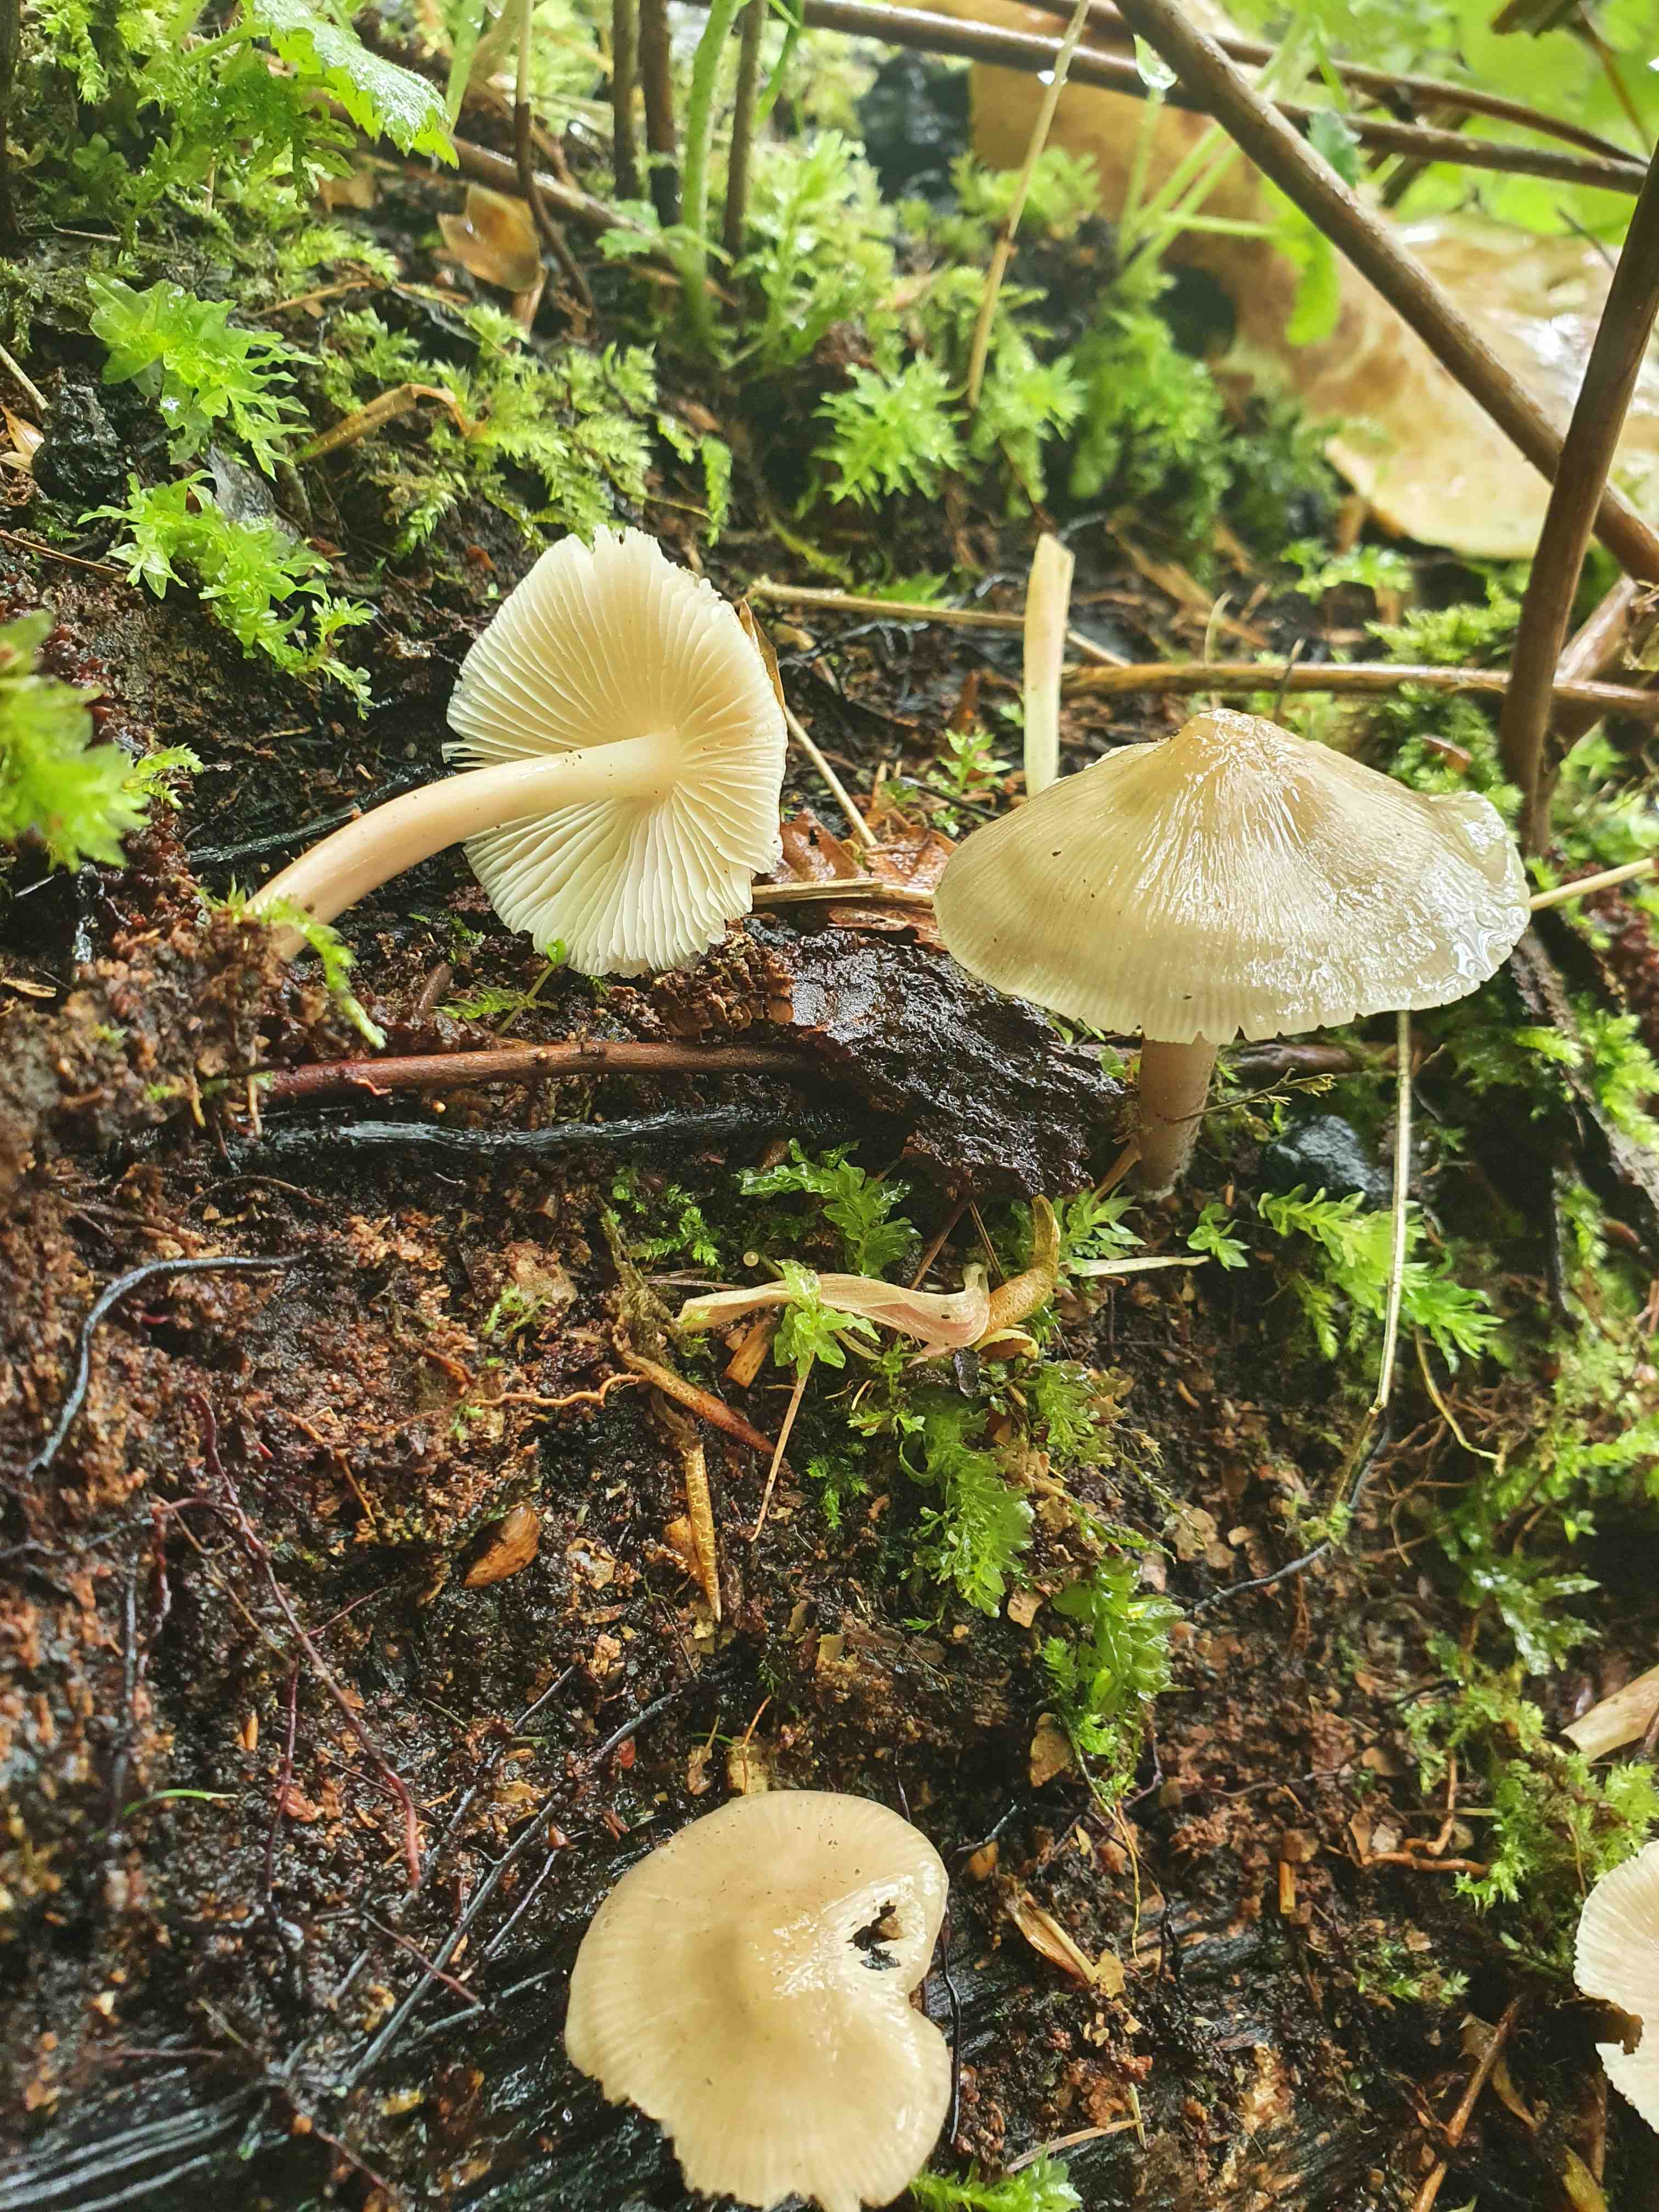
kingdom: Fungi
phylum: Basidiomycota
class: Agaricomycetes
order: Agaricales
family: Mycenaceae
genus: Mycena
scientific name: Mycena galericulata
